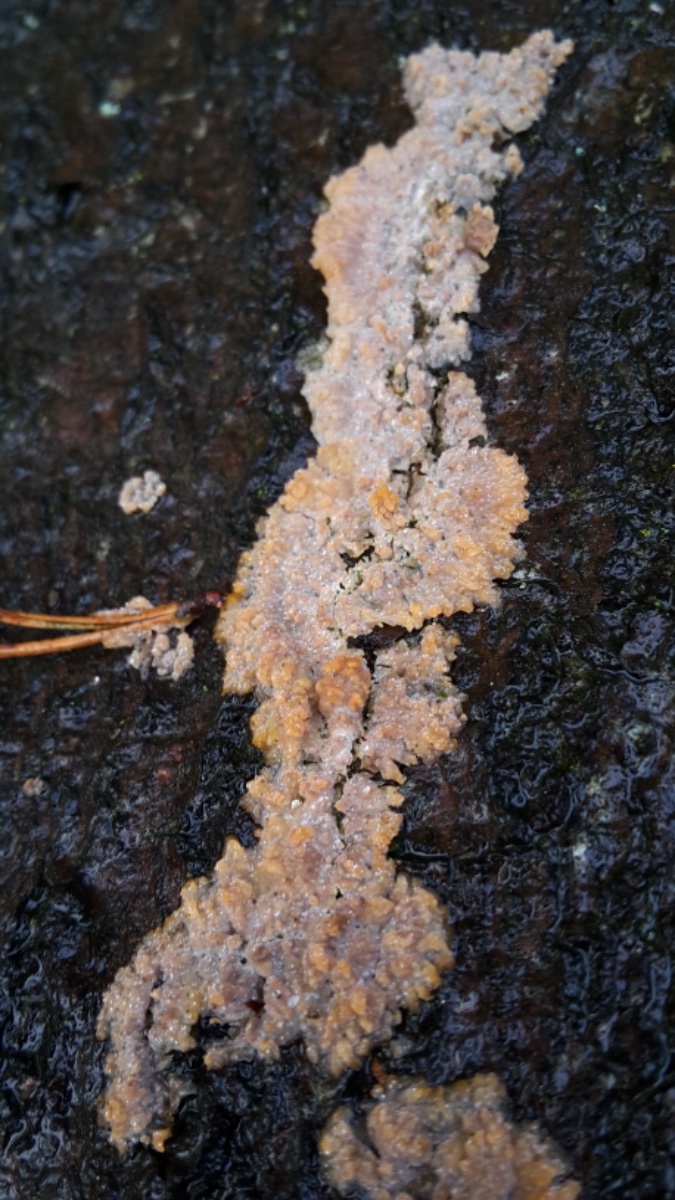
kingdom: Fungi
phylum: Basidiomycota
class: Agaricomycetes
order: Polyporales
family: Meruliaceae
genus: Phlebia
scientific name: Phlebia radiata
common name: stråle-åresvamp
